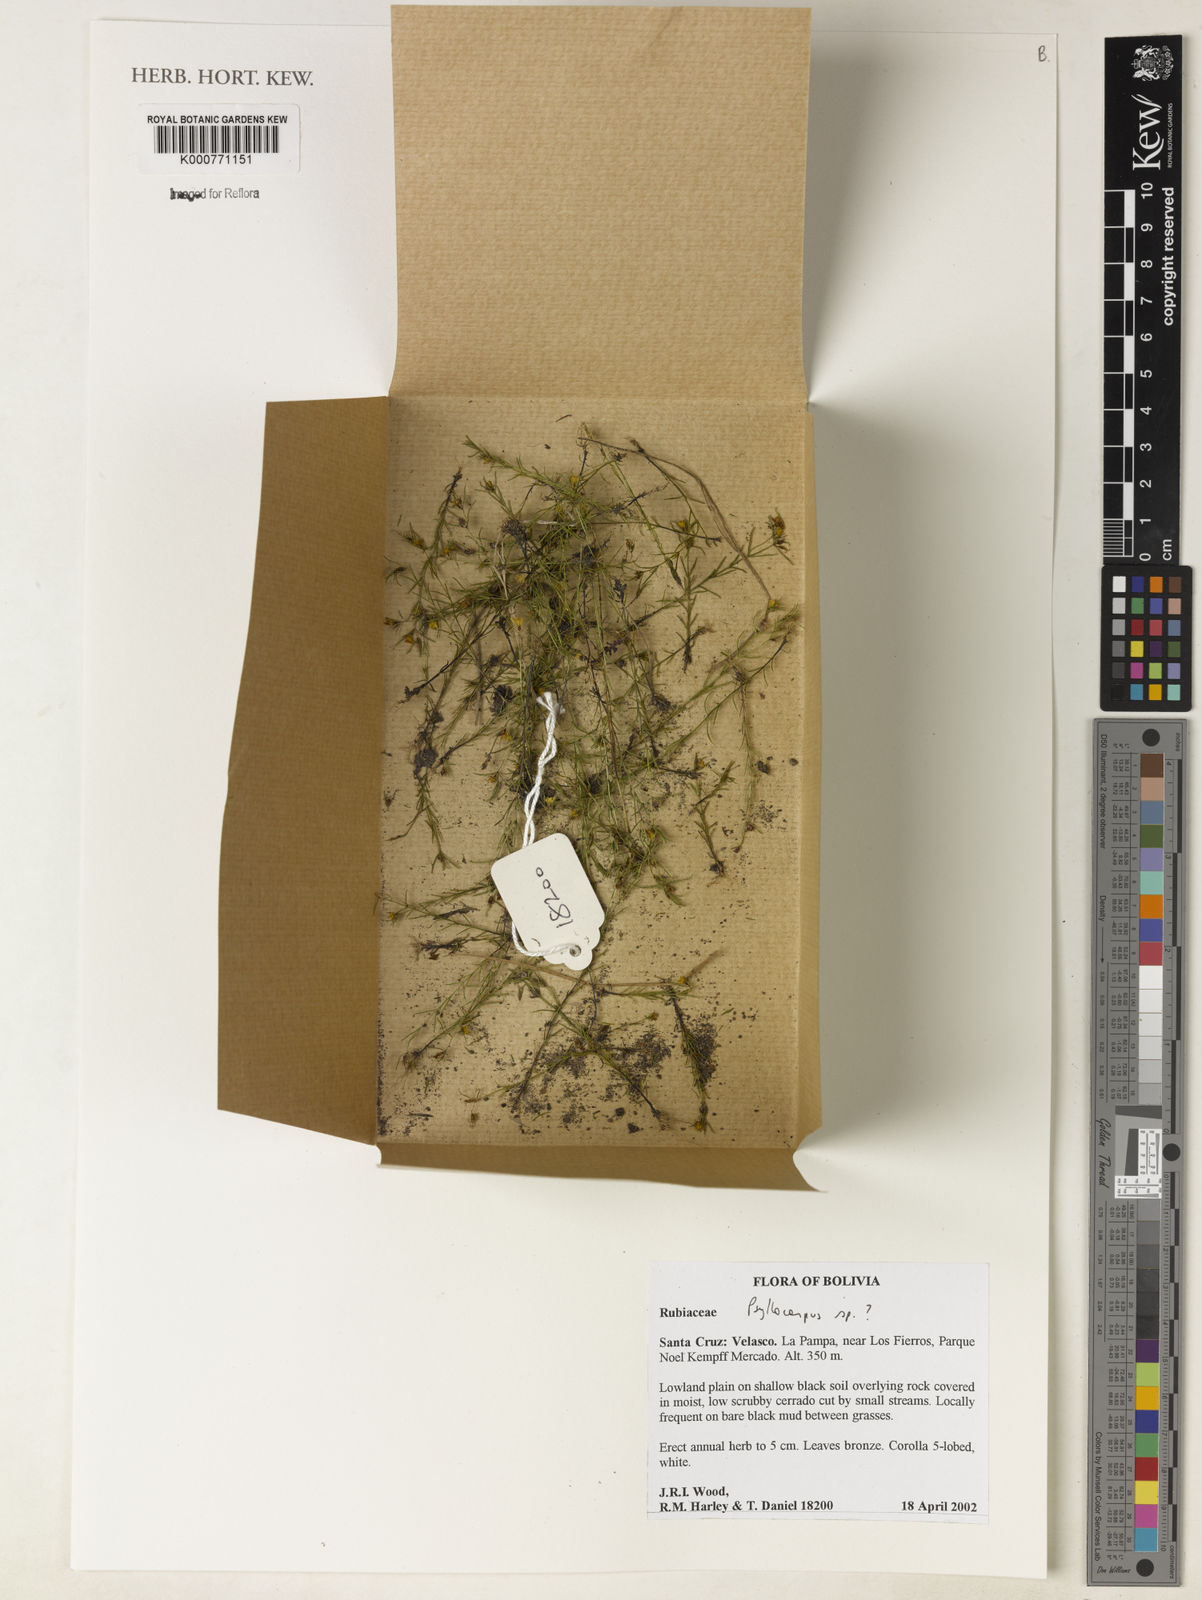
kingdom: Plantae
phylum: Tracheophyta
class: Magnoliopsida
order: Gentianales
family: Rubiaceae
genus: Psyllocarpus
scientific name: Psyllocarpus
